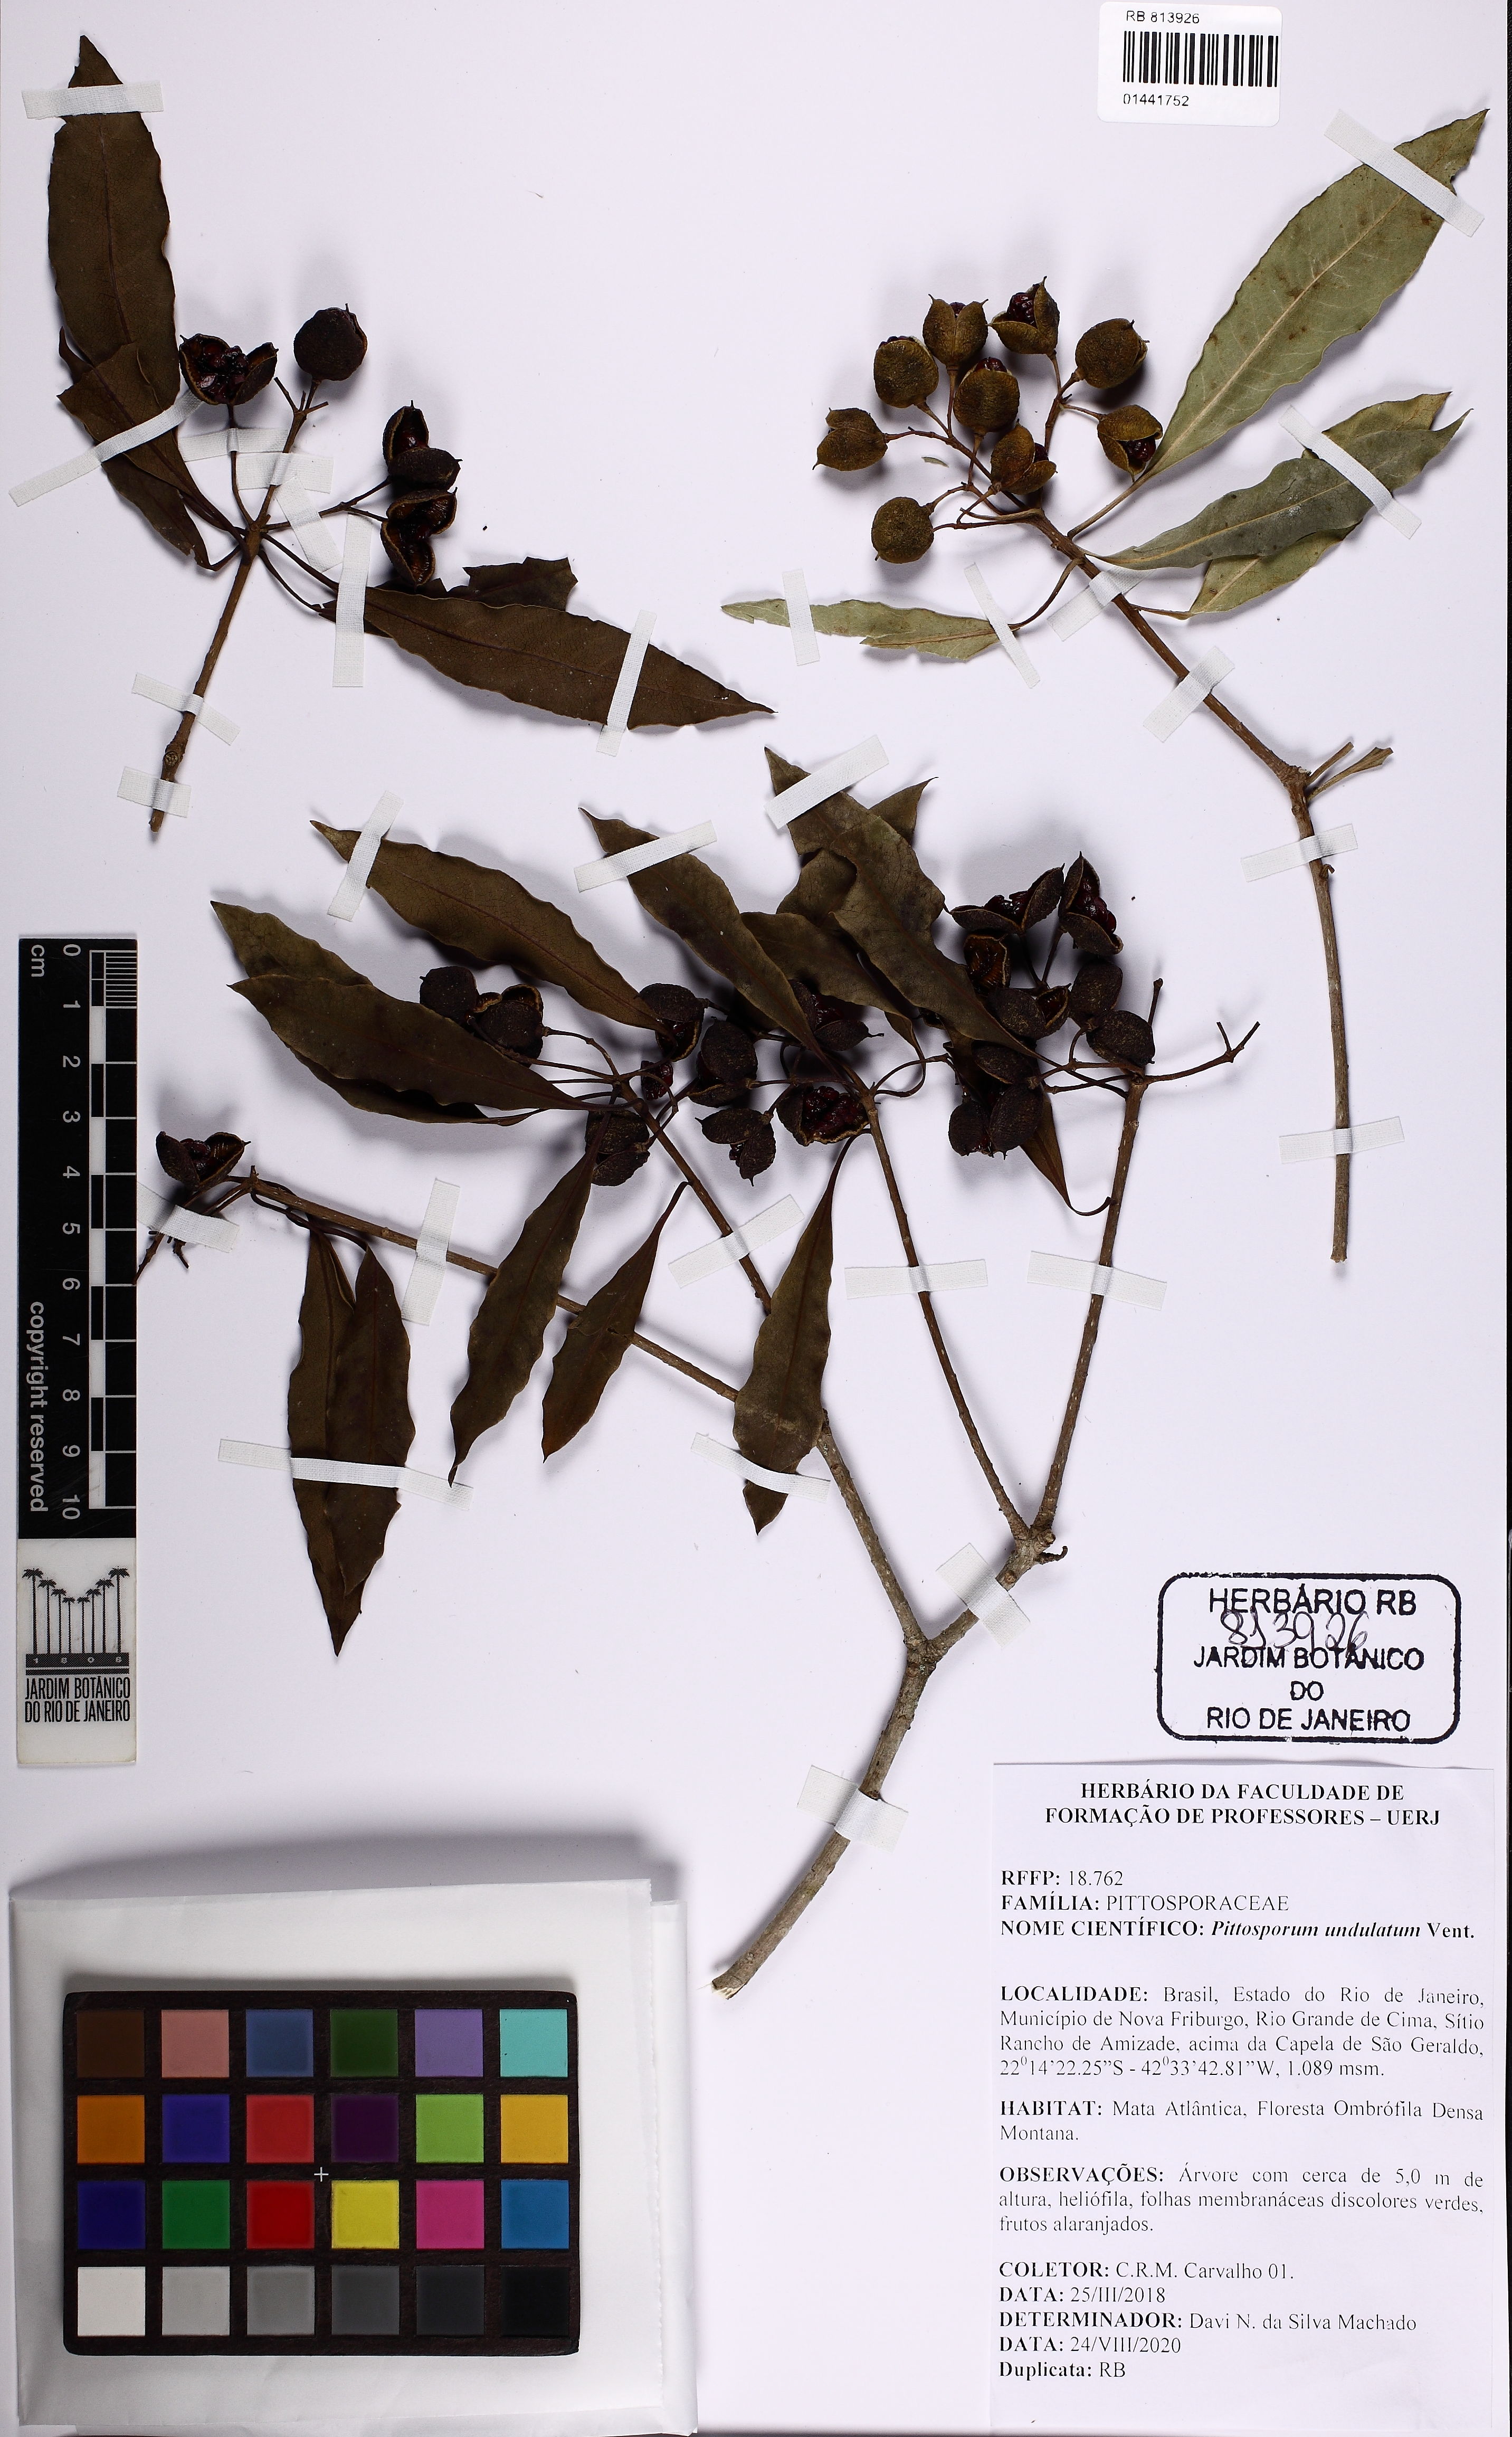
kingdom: Plantae
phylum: Tracheophyta
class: Magnoliopsida
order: Apiales
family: Pittosporaceae
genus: Pittosporum
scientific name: Pittosporum undulatum
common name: Australian cheesewood
